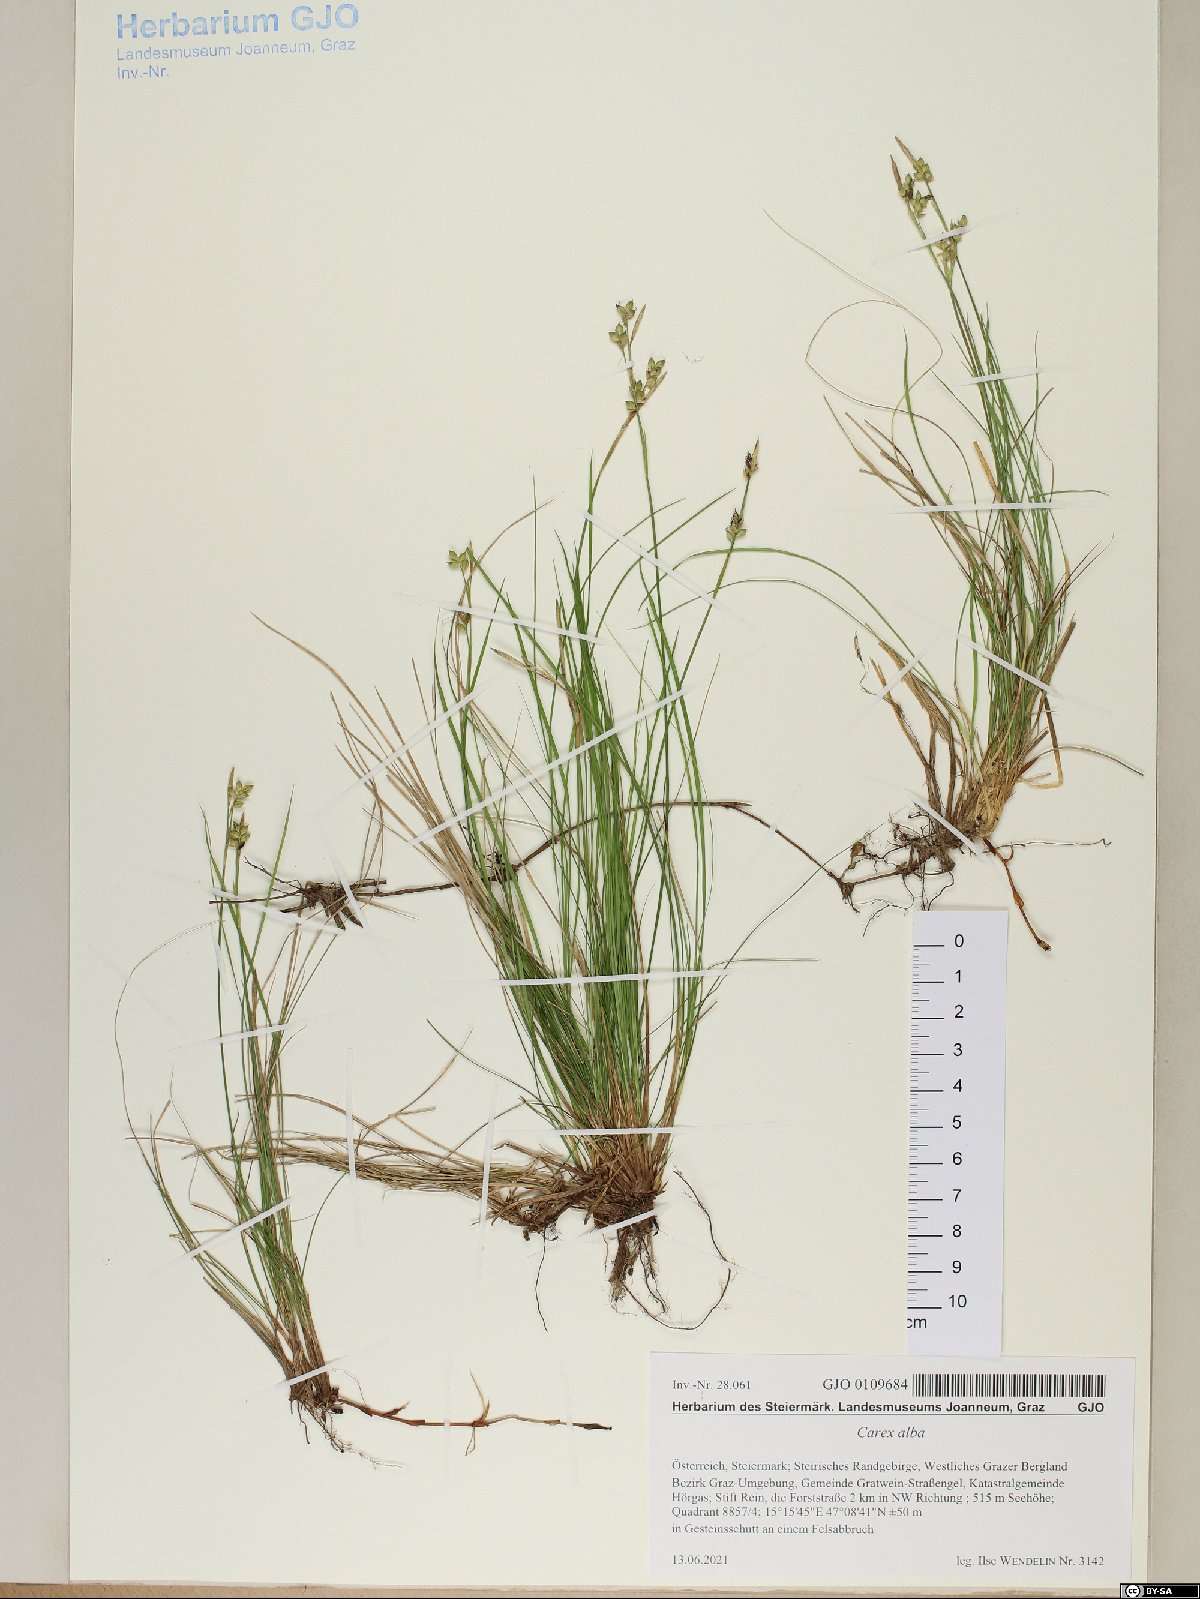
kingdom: Plantae
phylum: Tracheophyta
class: Liliopsida
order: Poales
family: Cyperaceae
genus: Carex
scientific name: Carex alba
